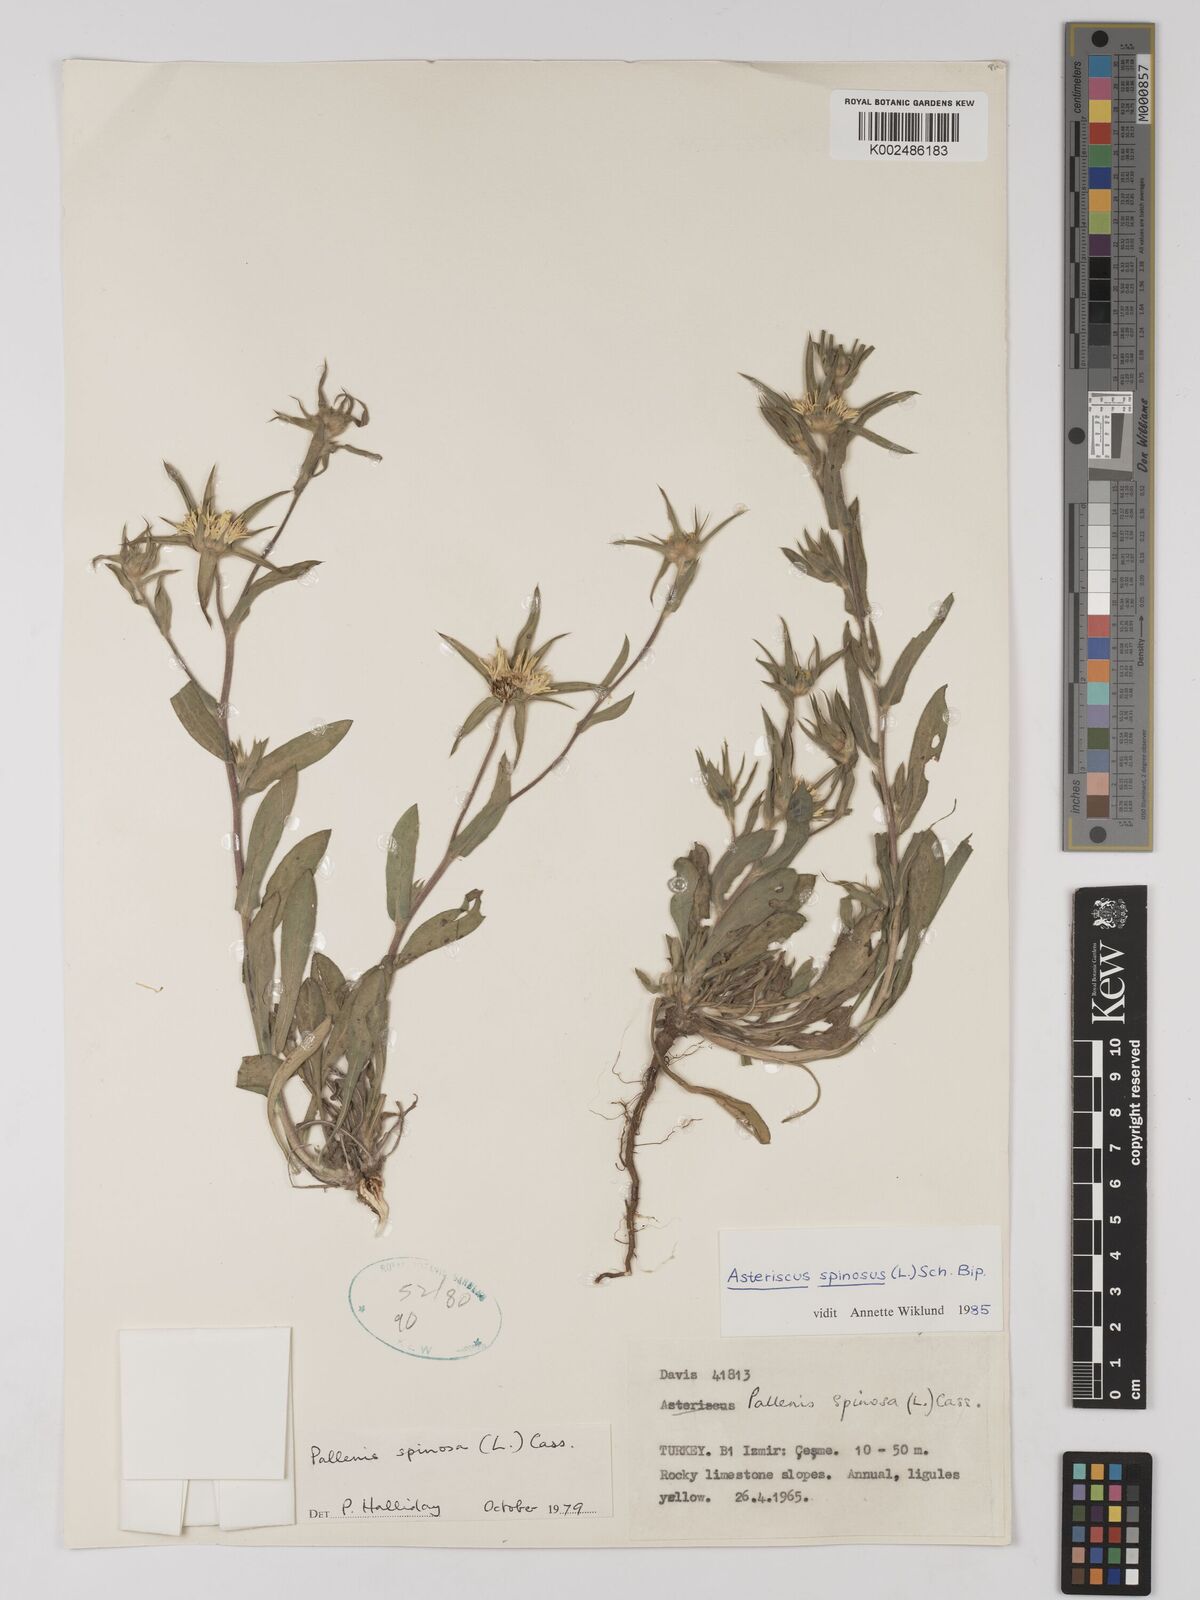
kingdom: Plantae
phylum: Tracheophyta
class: Magnoliopsida
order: Asterales
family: Asteraceae
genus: Pallenis
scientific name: Pallenis spinosa
